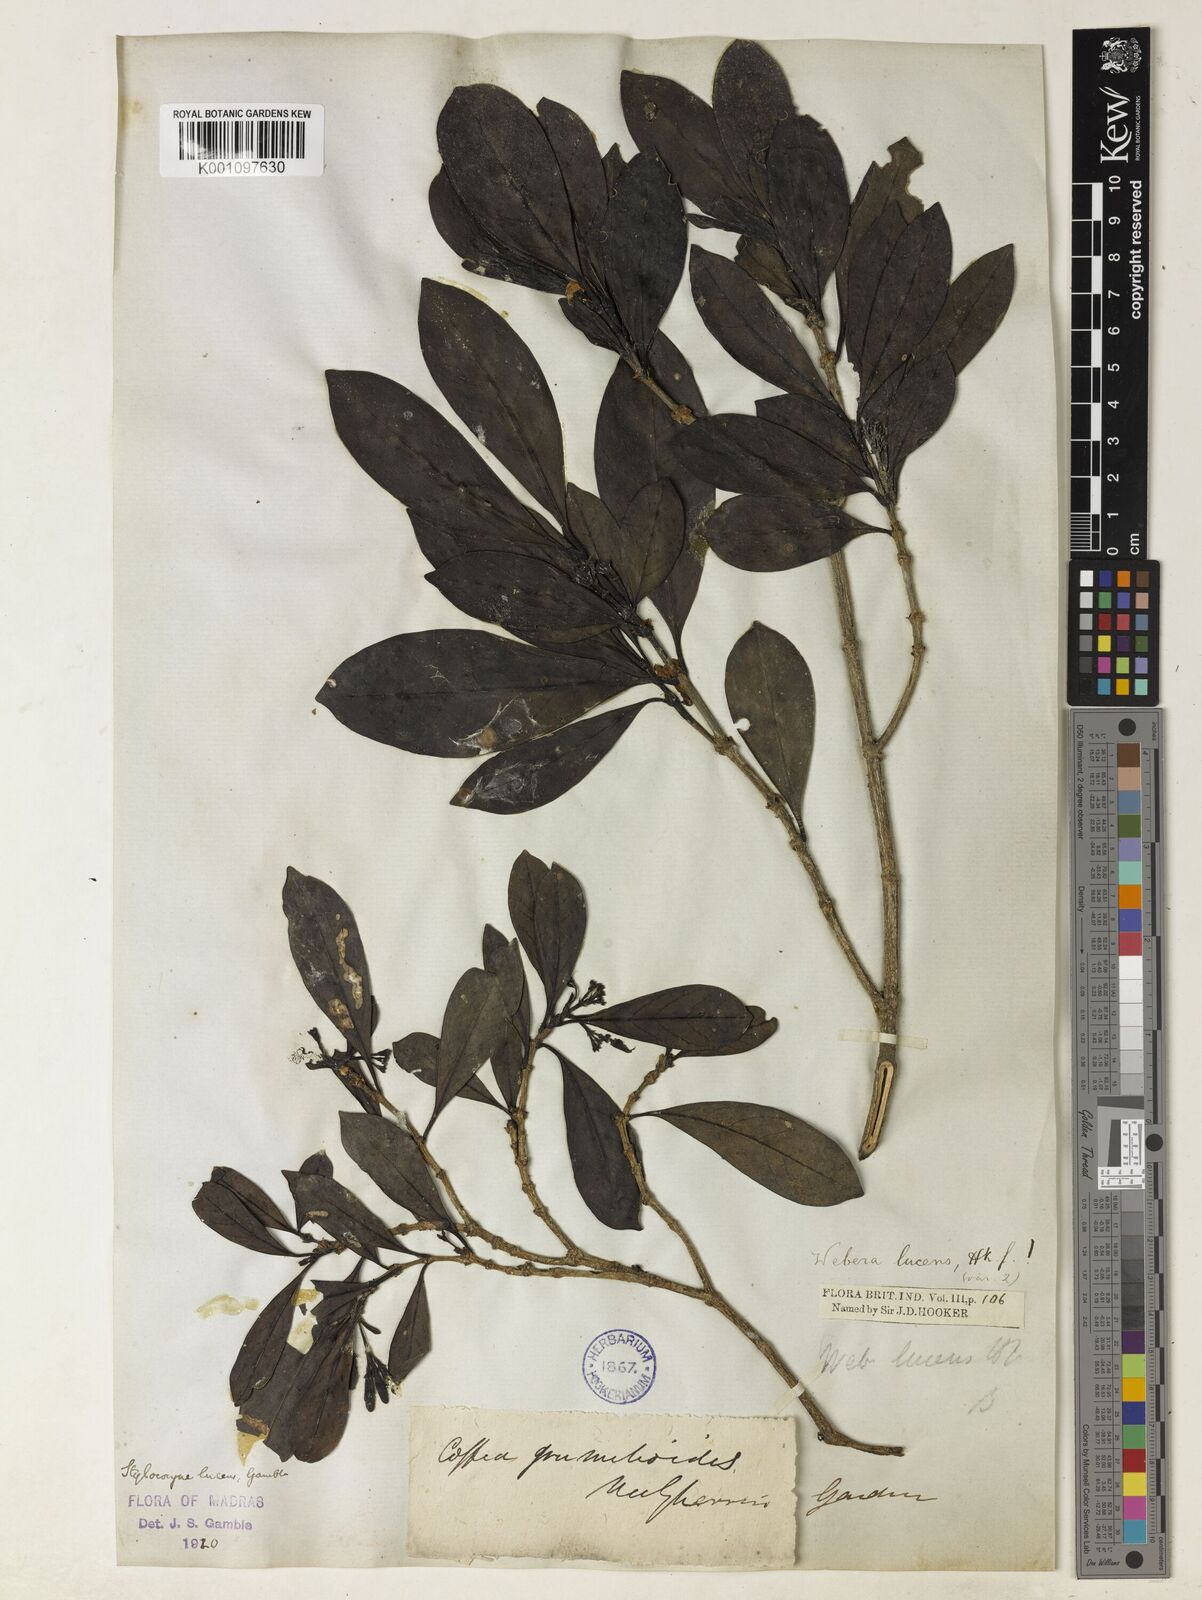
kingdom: Plantae
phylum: Tracheophyta
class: Magnoliopsida
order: Gentianales
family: Rubiaceae
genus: Tarenna
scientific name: Tarenna alpestris
